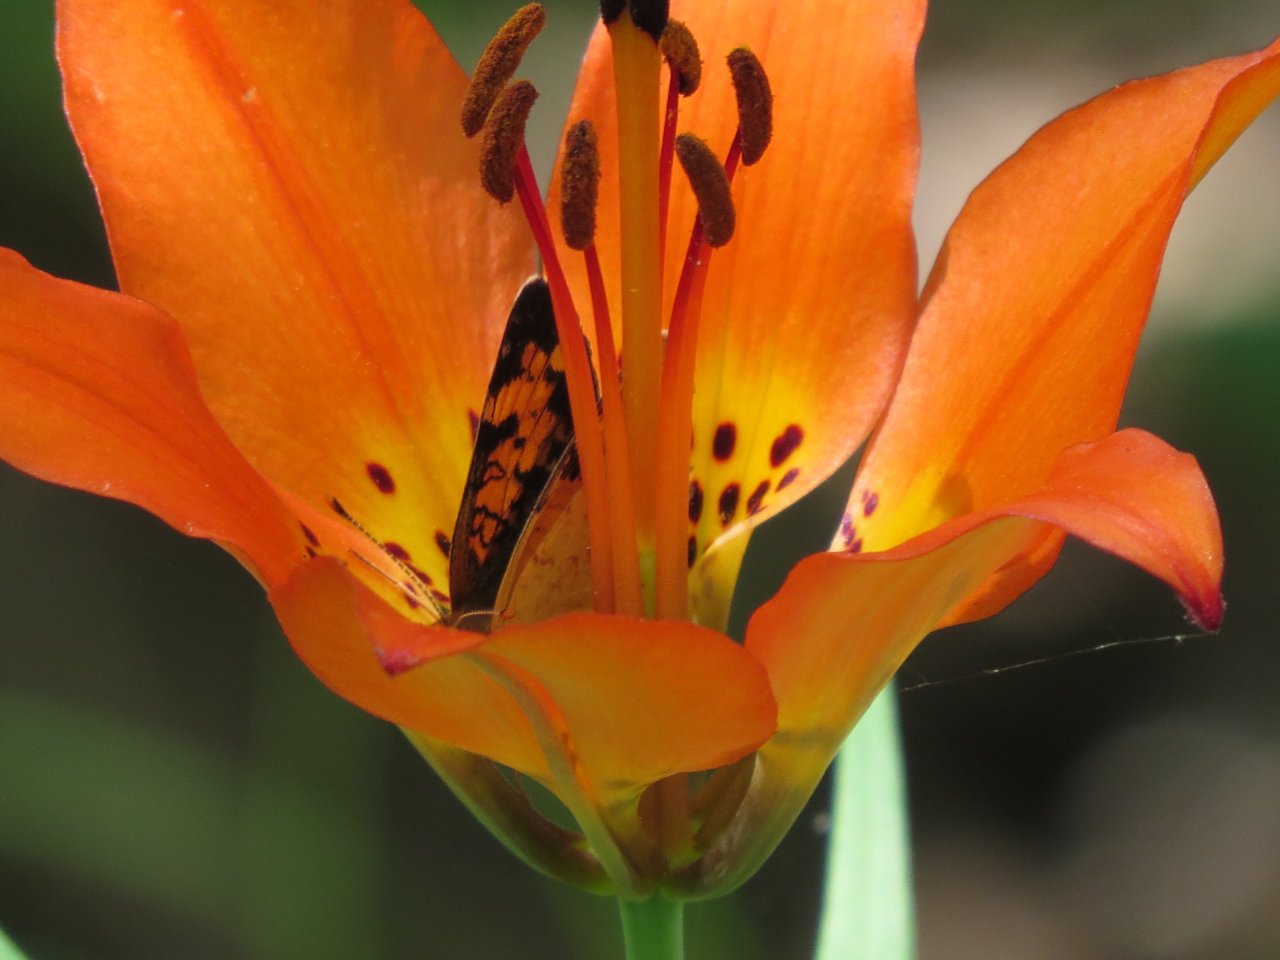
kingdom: Animalia
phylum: Arthropoda
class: Insecta
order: Lepidoptera
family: Nymphalidae
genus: Phyciodes
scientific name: Phyciodes tharos
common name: Northern Crescent
